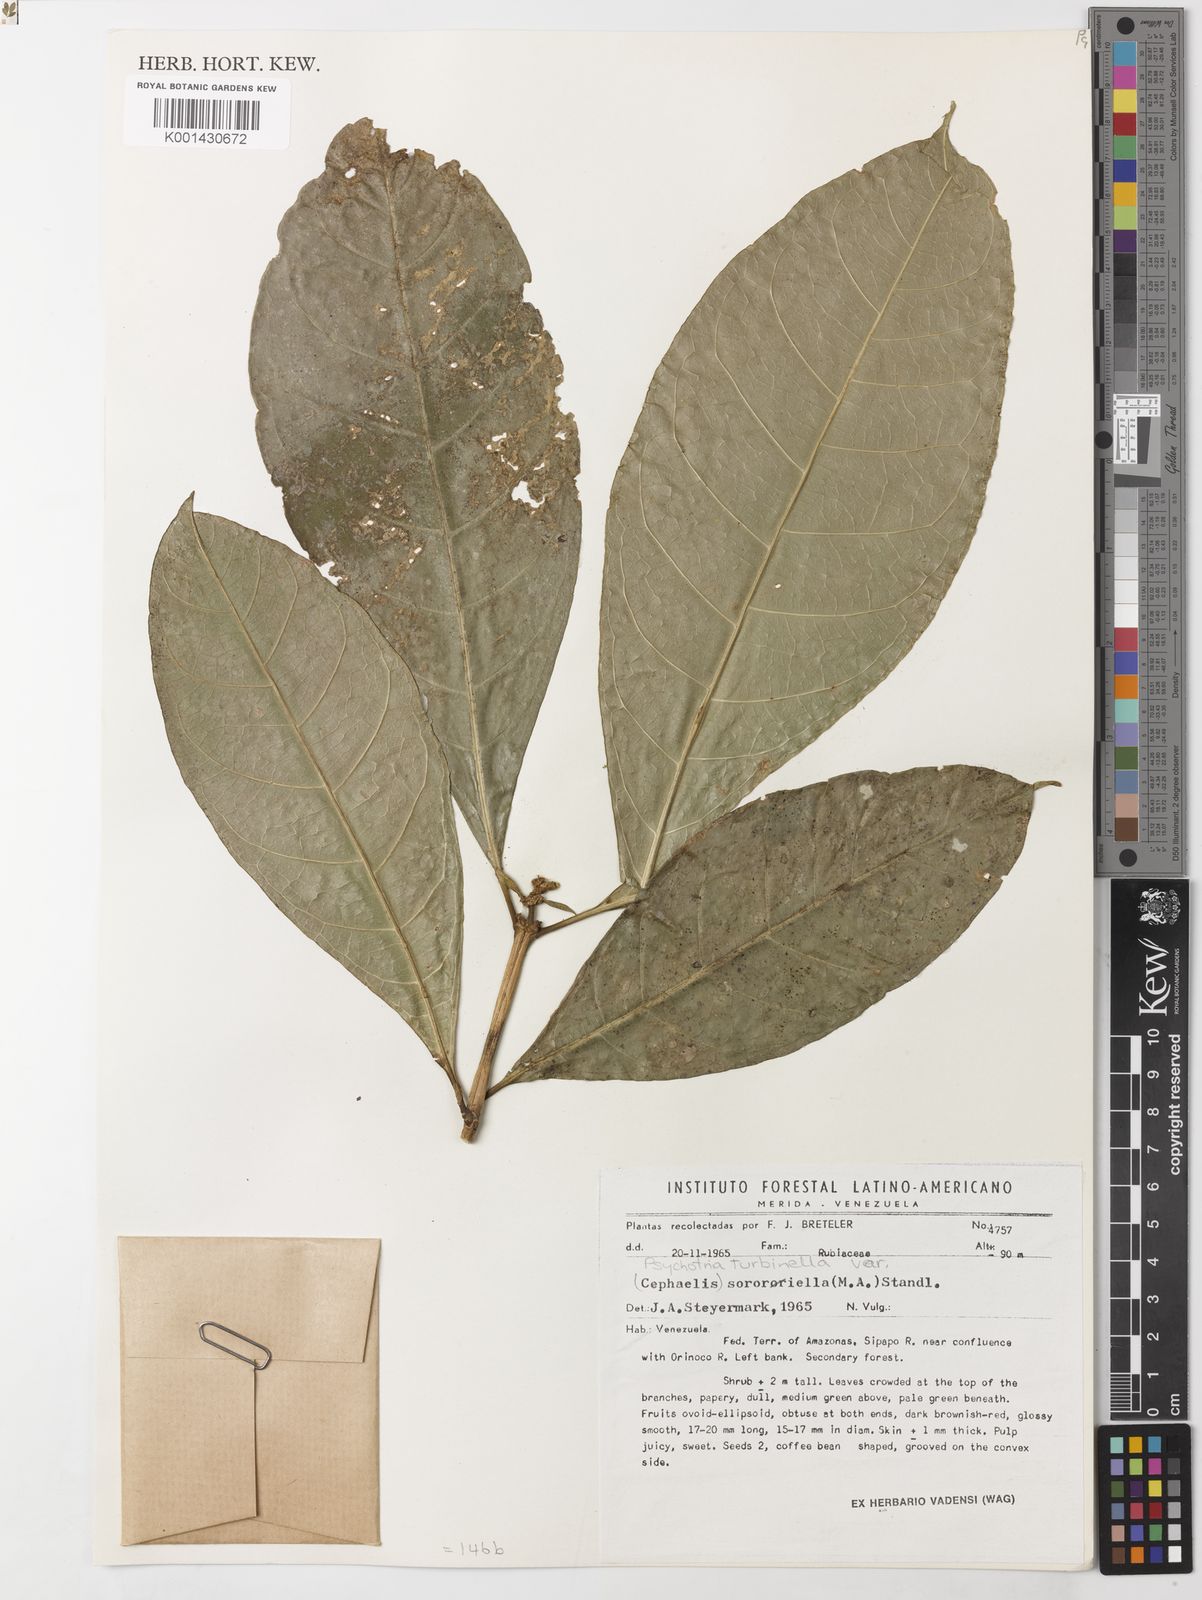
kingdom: Plantae
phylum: Tracheophyta
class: Magnoliopsida
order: Gentianales
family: Rubiaceae
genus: Psychotria
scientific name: Psychotria
